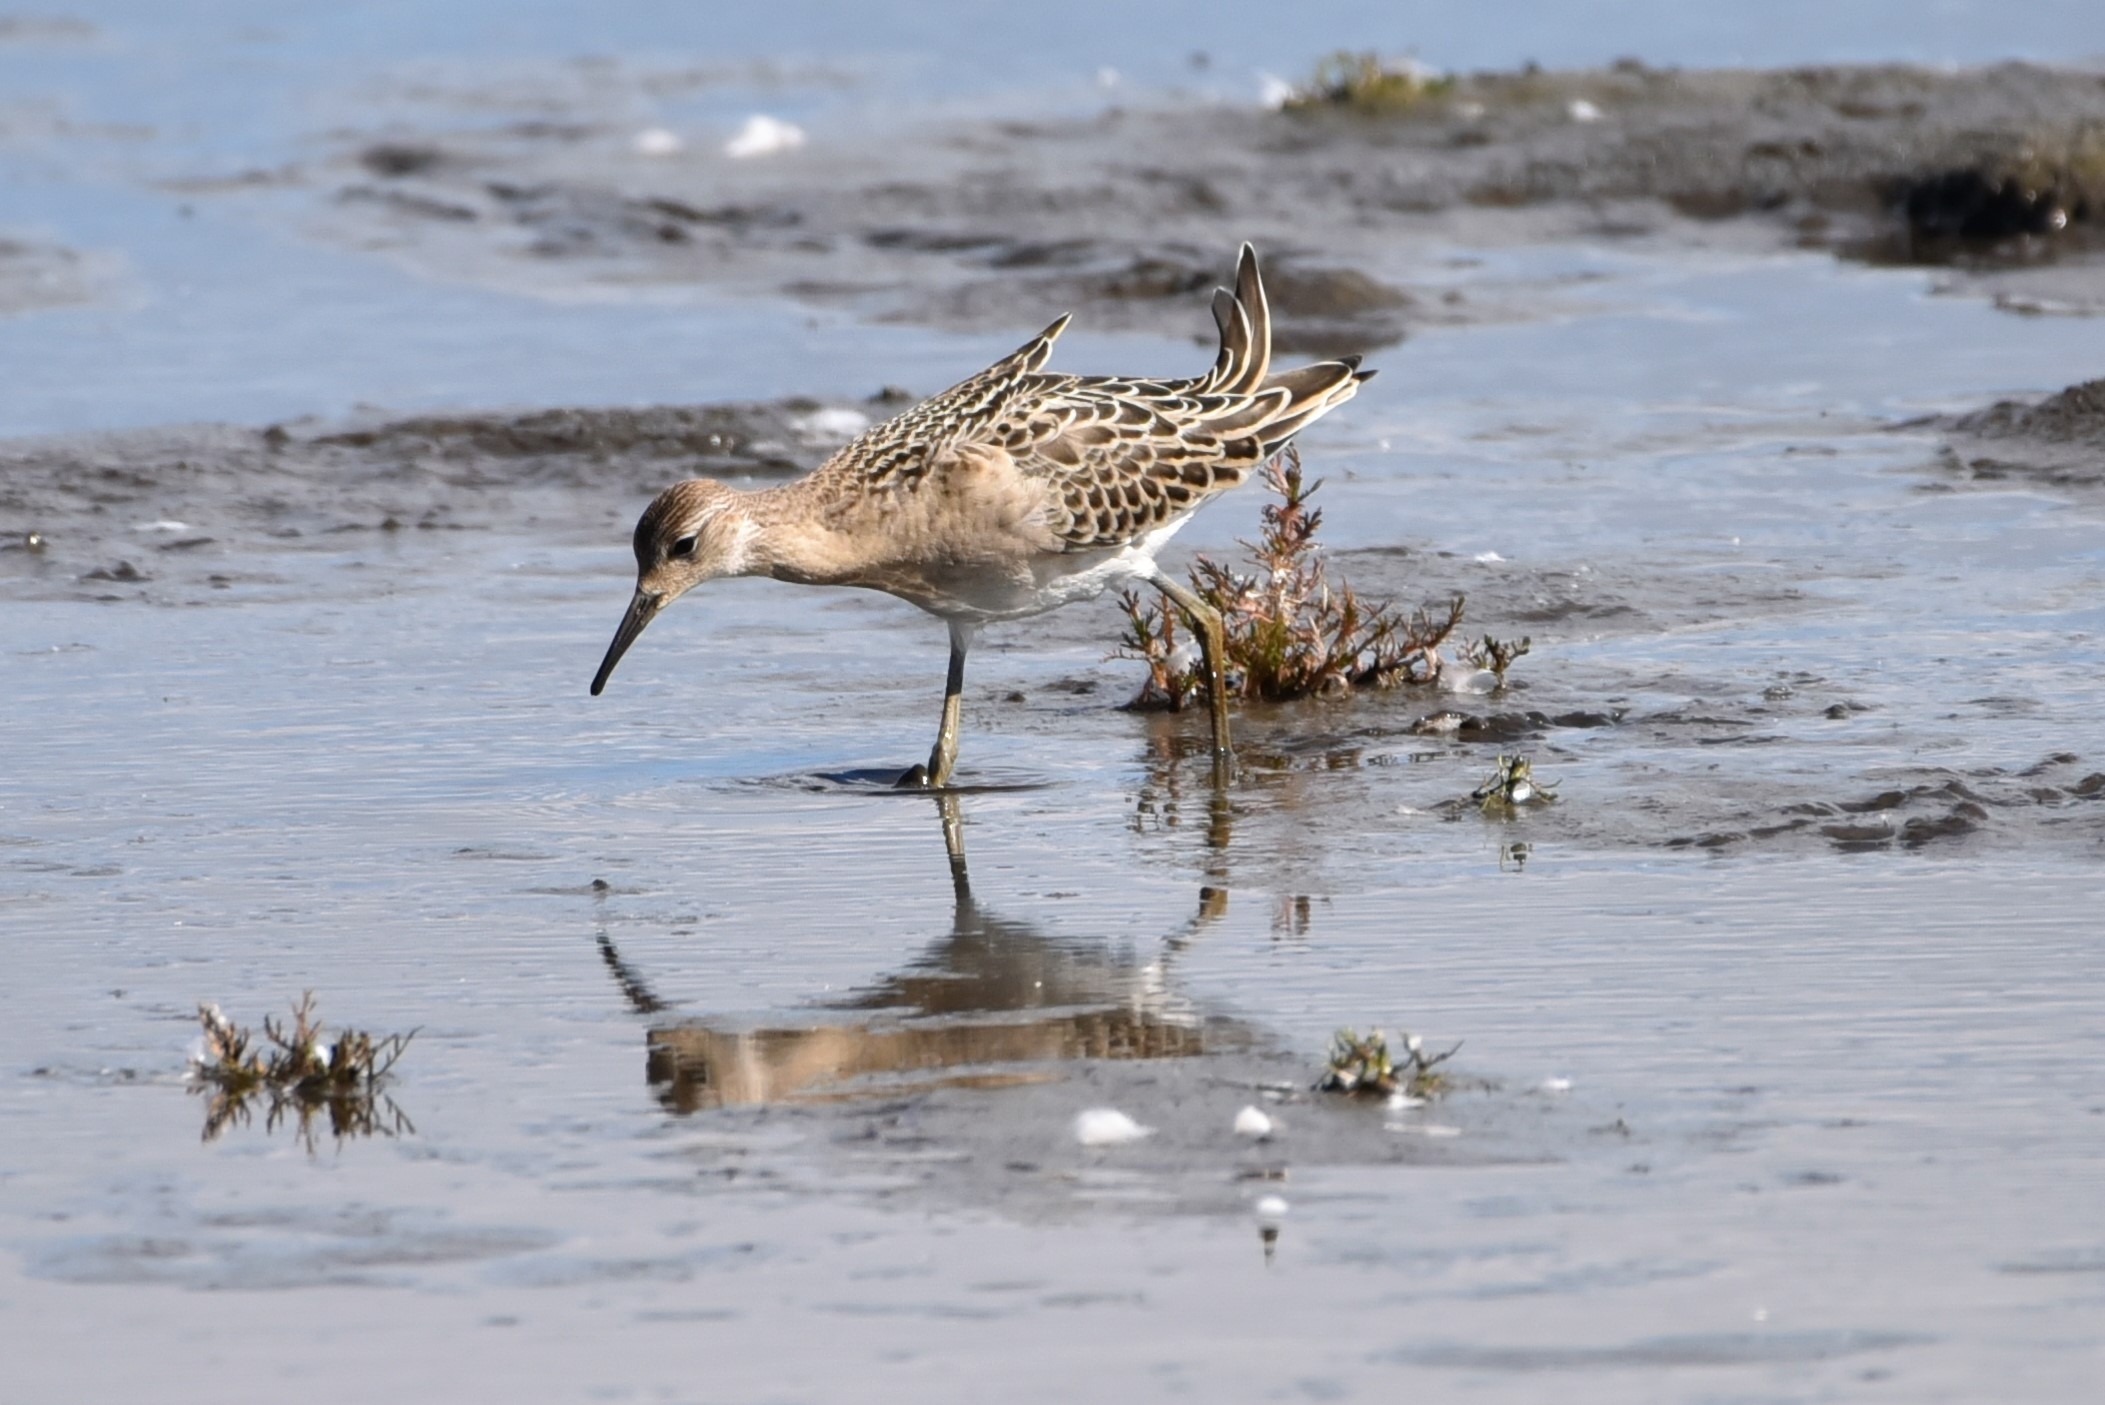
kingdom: Animalia
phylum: Chordata
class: Aves
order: Charadriiformes
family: Scolopacidae
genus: Calidris
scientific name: Calidris pugnax
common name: Brushane
